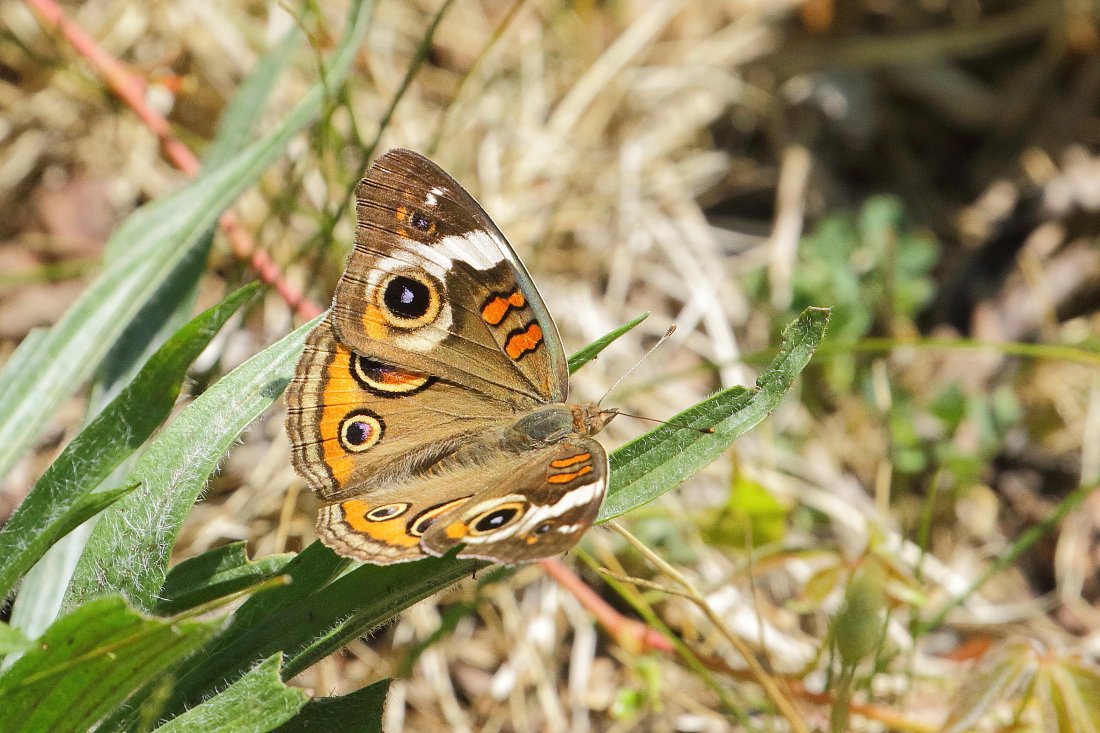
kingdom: Animalia
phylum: Arthropoda
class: Insecta
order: Lepidoptera
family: Nymphalidae
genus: Junonia
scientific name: Junonia coenia
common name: Common Buckeye
